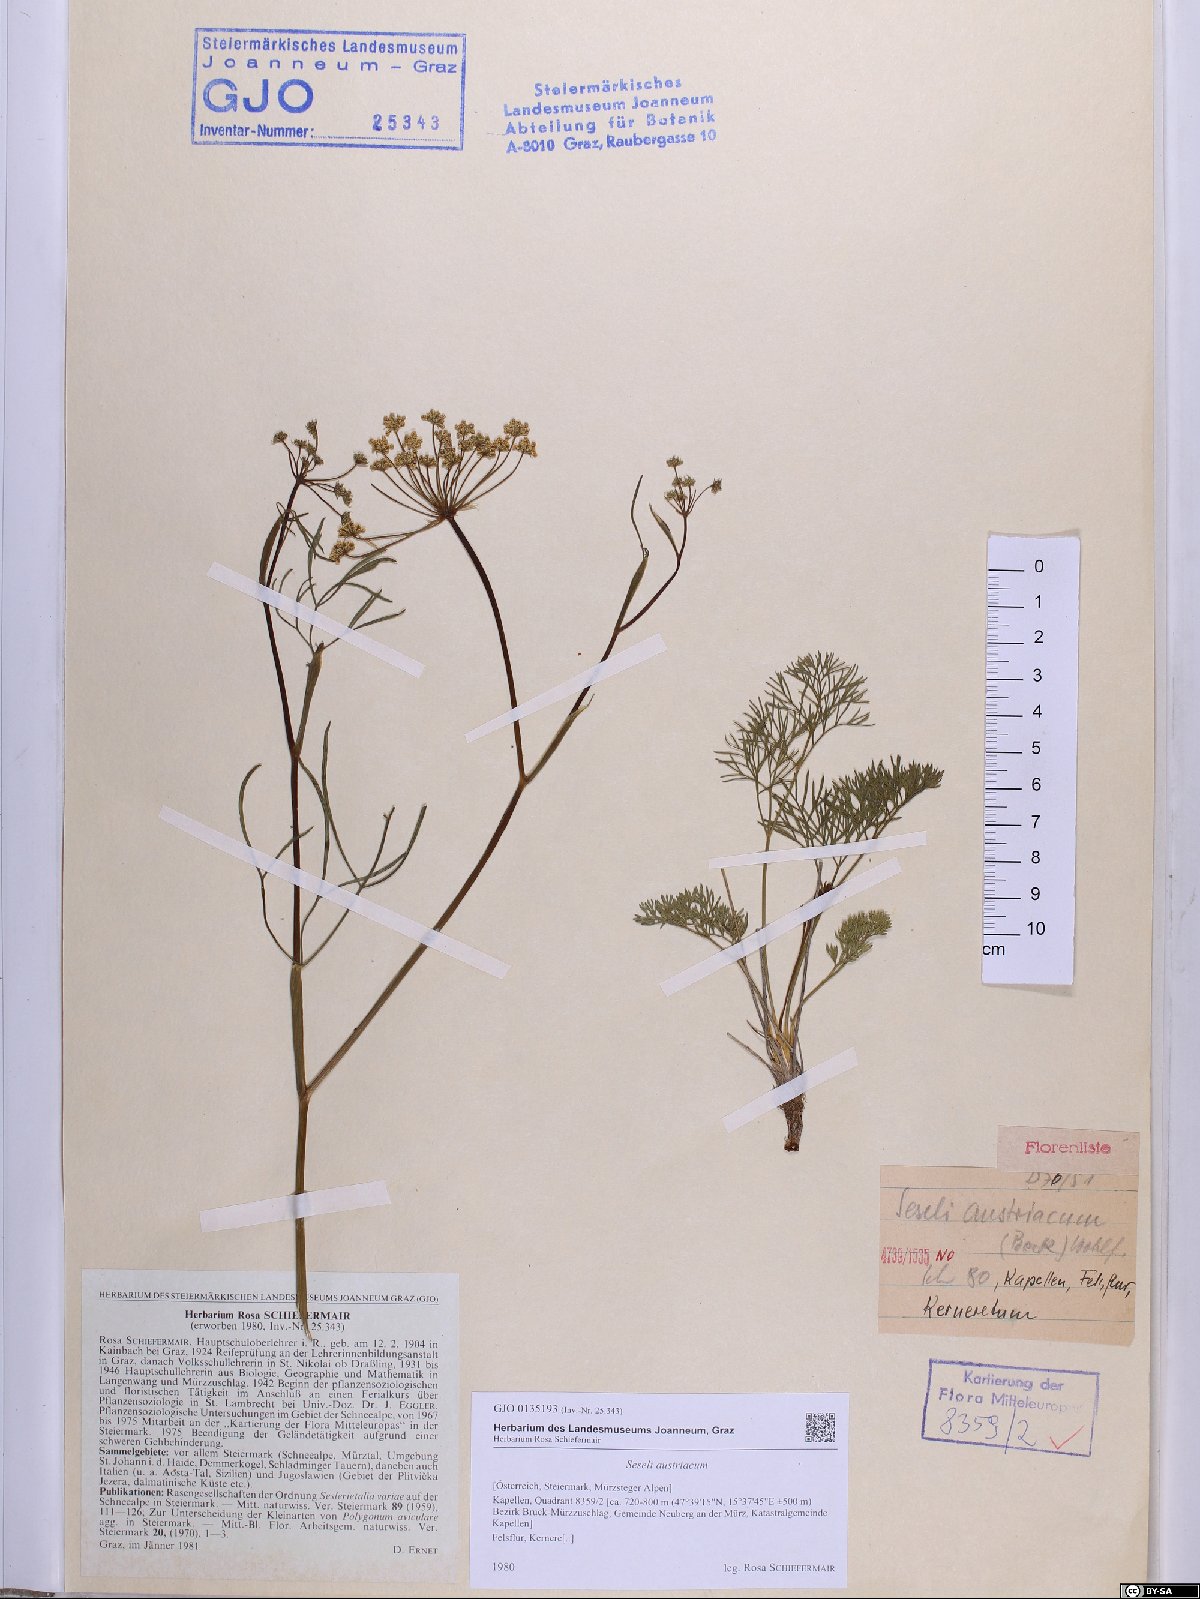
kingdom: Plantae
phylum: Tracheophyta
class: Magnoliopsida
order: Apiales
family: Apiaceae
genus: Seseli
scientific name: Seseli austriacum
